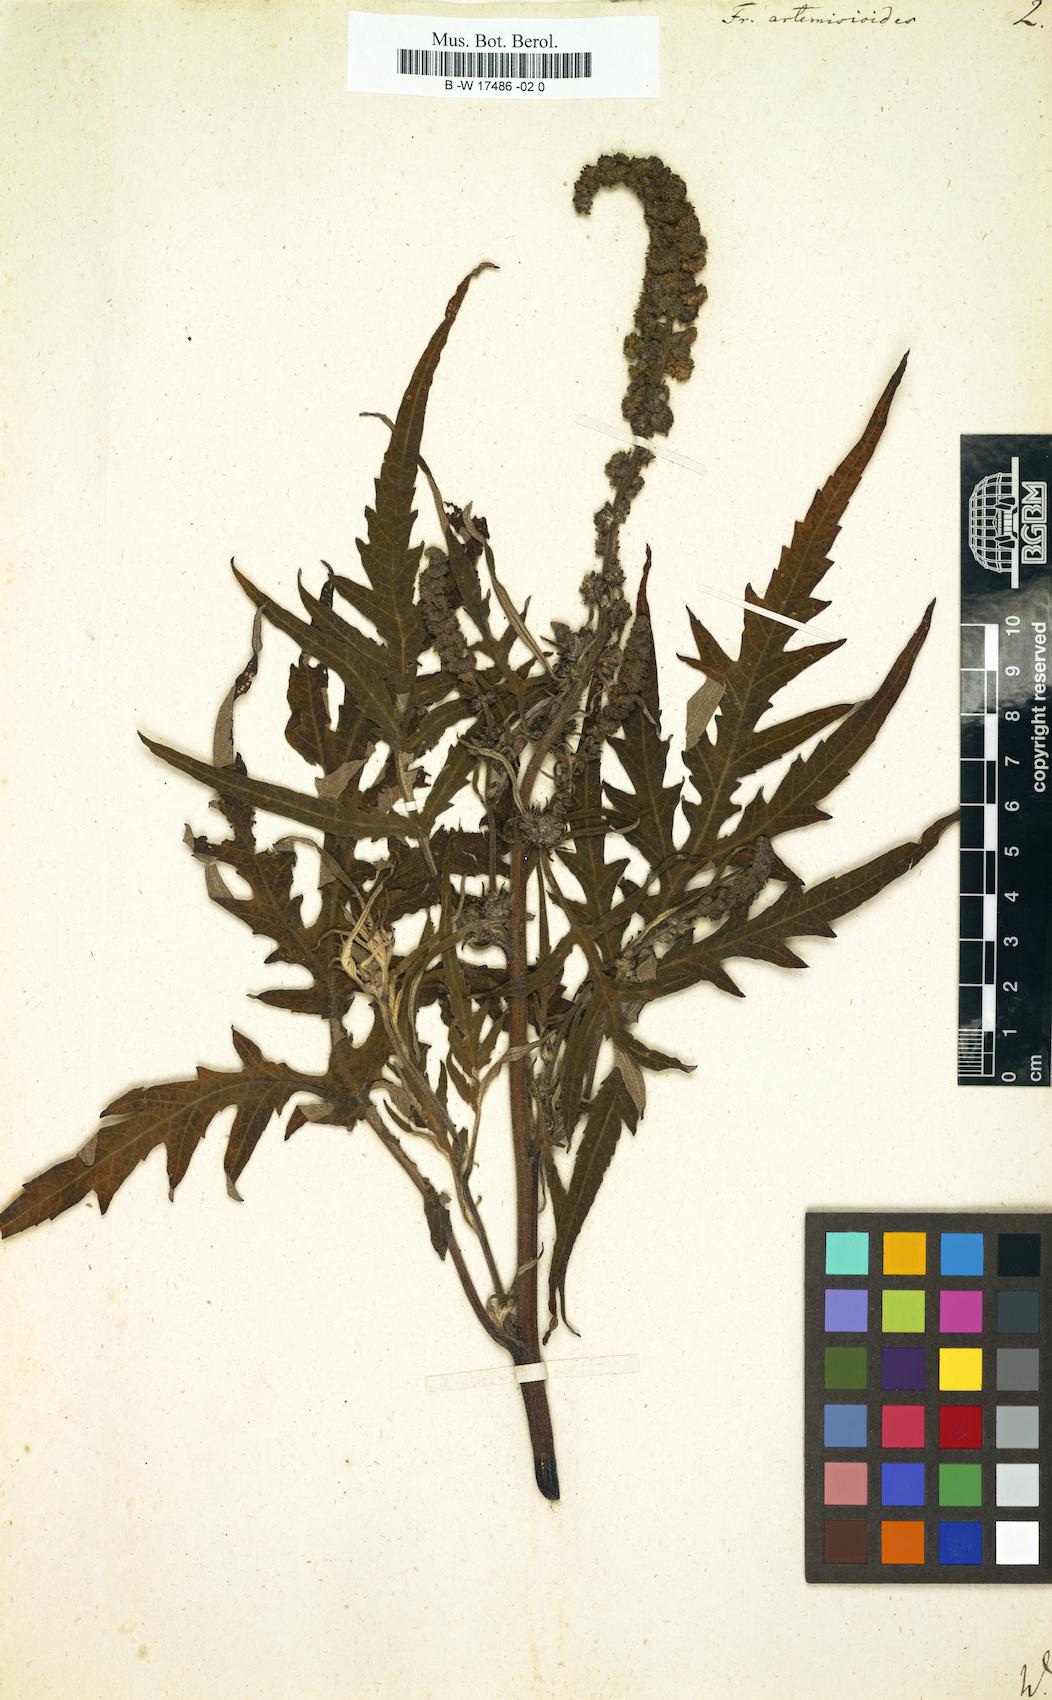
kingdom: Plantae
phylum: Tracheophyta
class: Magnoliopsida
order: Asterales
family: Asteraceae
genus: Ambrosia
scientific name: Ambrosia arborescens
